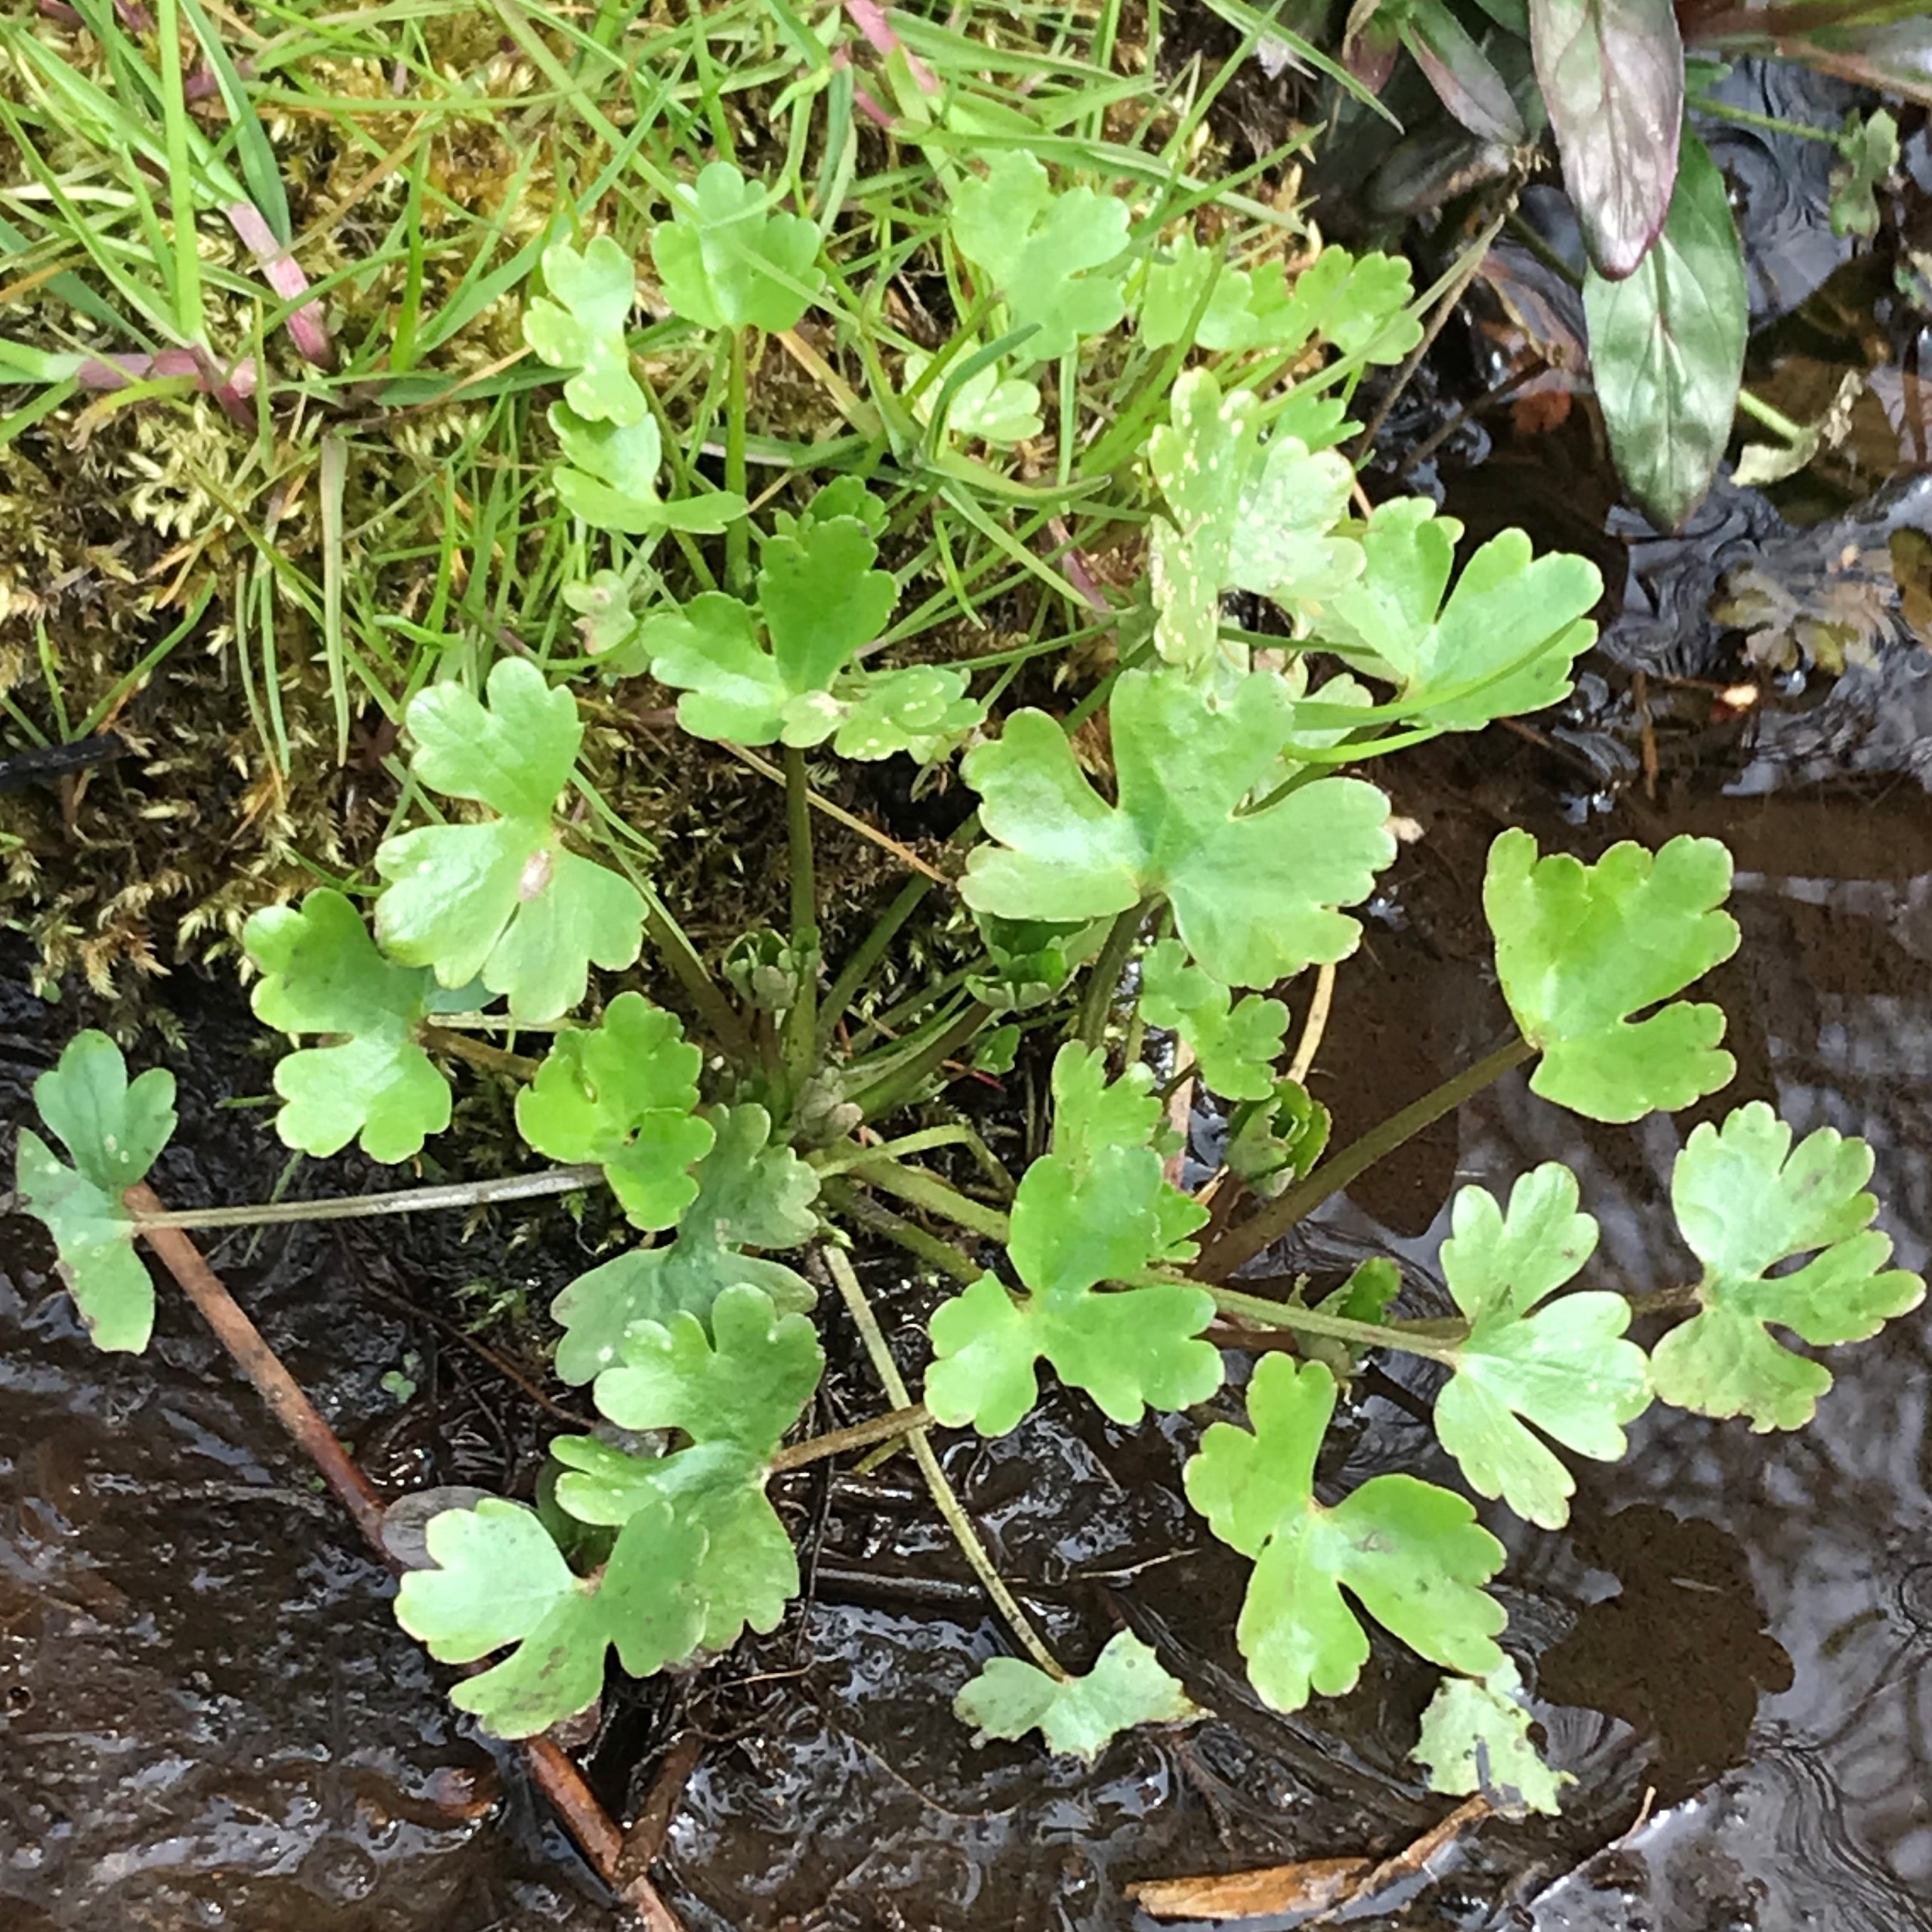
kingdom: Plantae
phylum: Tracheophyta
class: Magnoliopsida
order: Ranunculales
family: Ranunculaceae
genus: Ranunculus
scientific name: Ranunculus sceleratus
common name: Tigger-ranunkel
